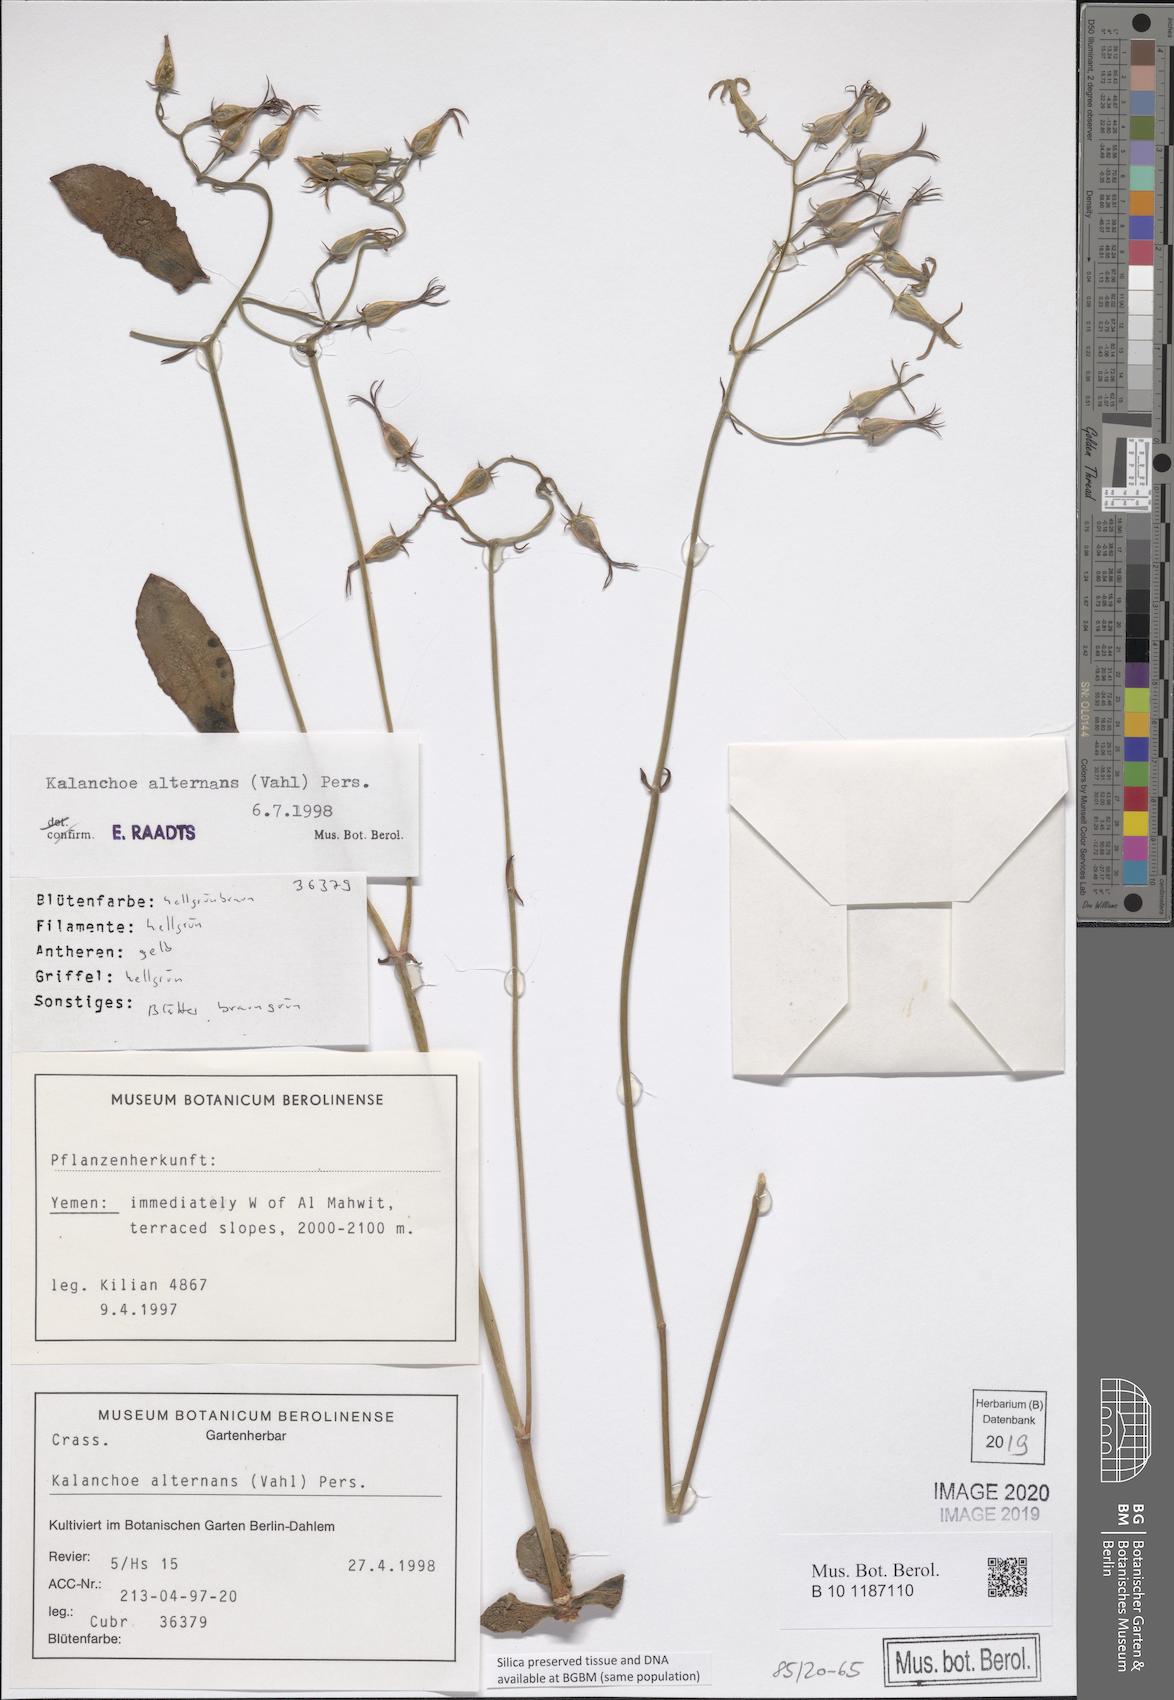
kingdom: Plantae
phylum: Tracheophyta
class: Magnoliopsida
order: Saxifragales
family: Crassulaceae
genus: Kalanchoe
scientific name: Kalanchoe alternans
